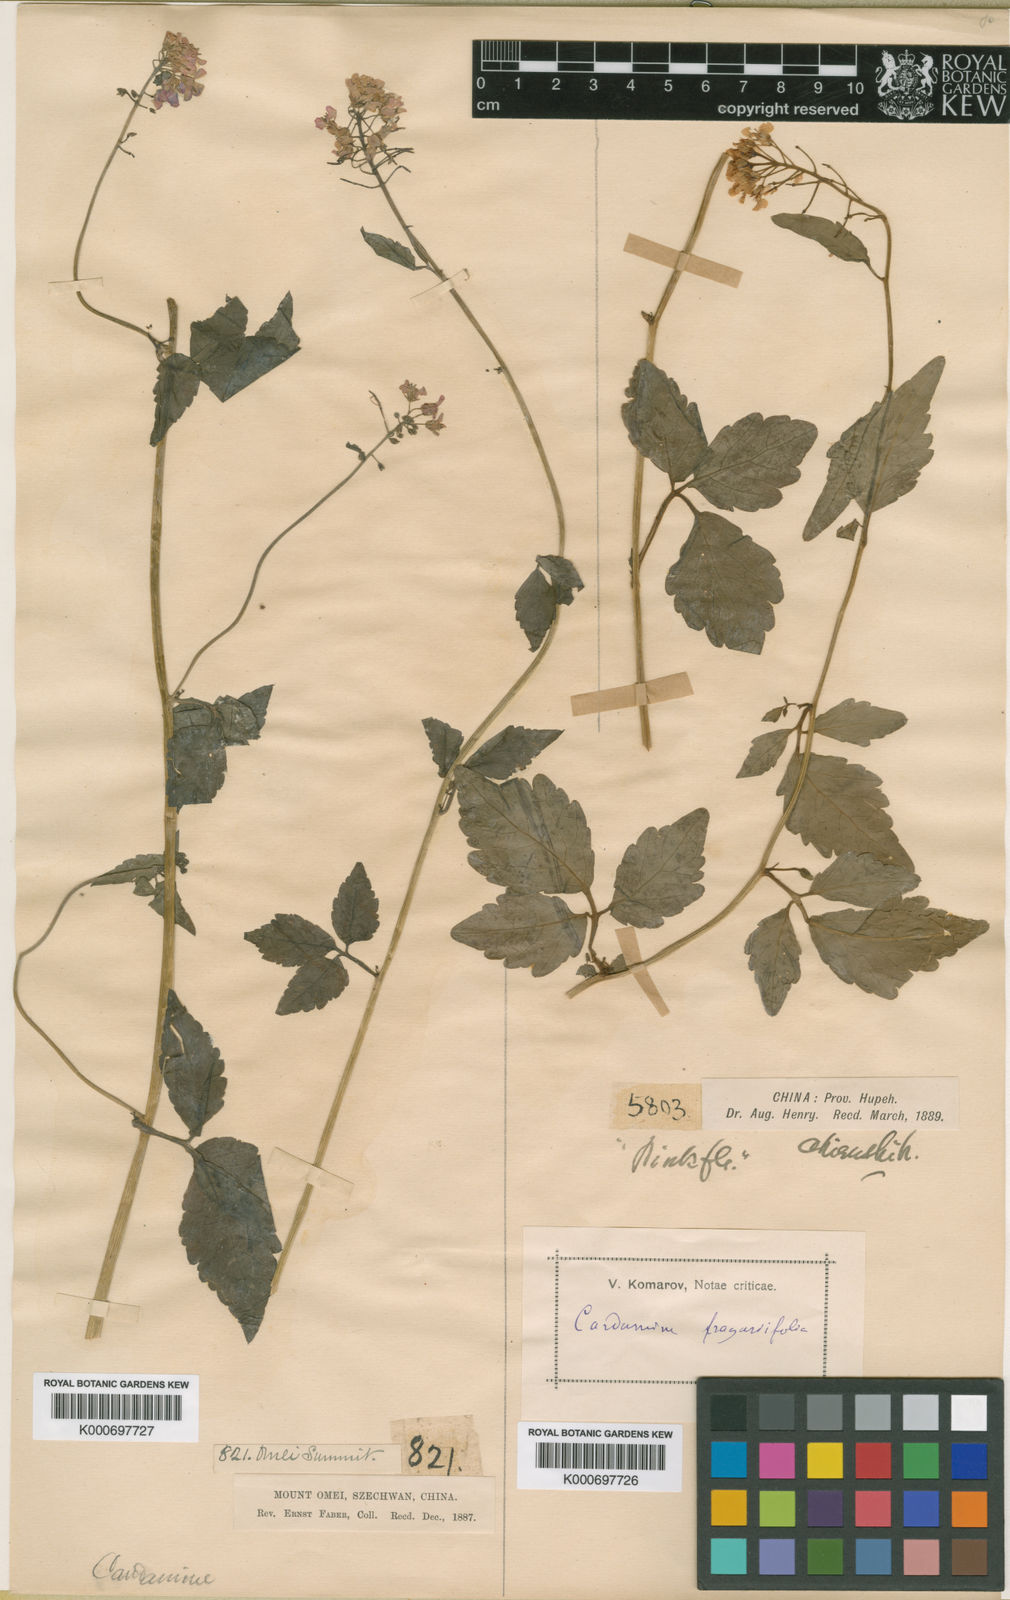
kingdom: Plantae
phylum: Tracheophyta
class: Magnoliopsida
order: Brassicales
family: Brassicaceae
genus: Cardamine
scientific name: Cardamine cheotaiyienii
